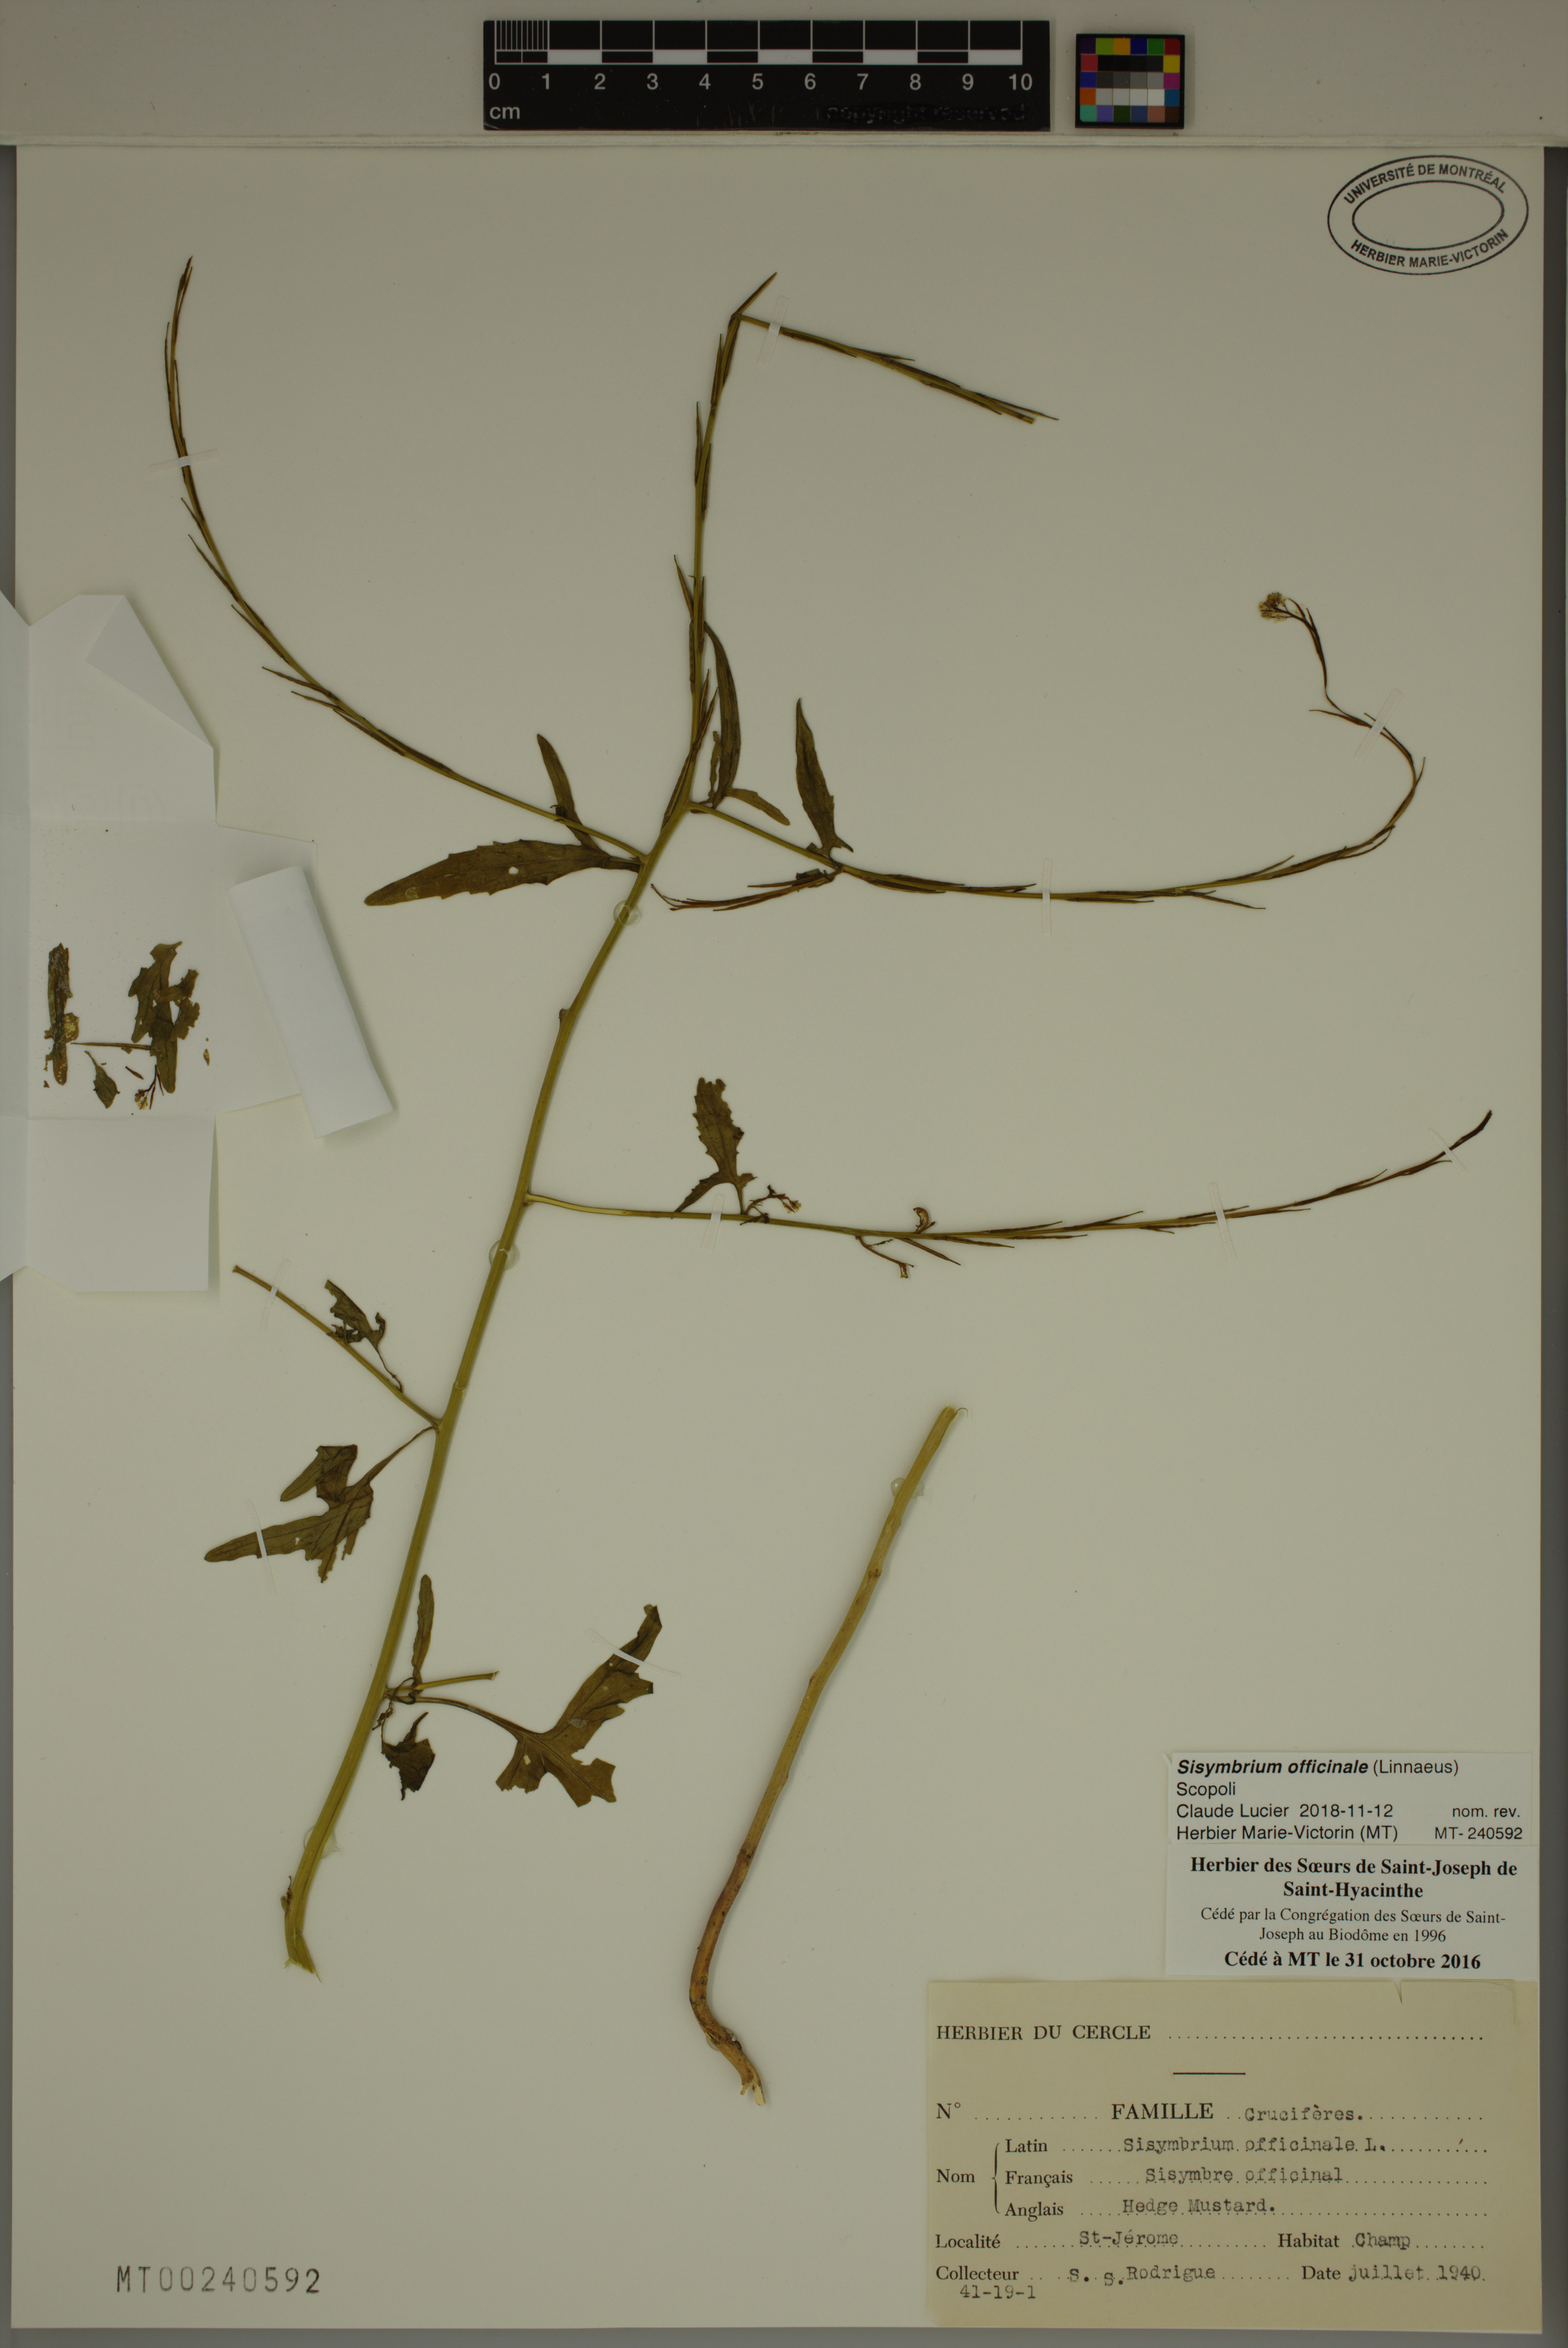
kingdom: Plantae
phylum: Tracheophyta
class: Magnoliopsida
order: Brassicales
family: Brassicaceae
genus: Sisymbrium
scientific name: Sisymbrium officinale
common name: Hedge mustard
